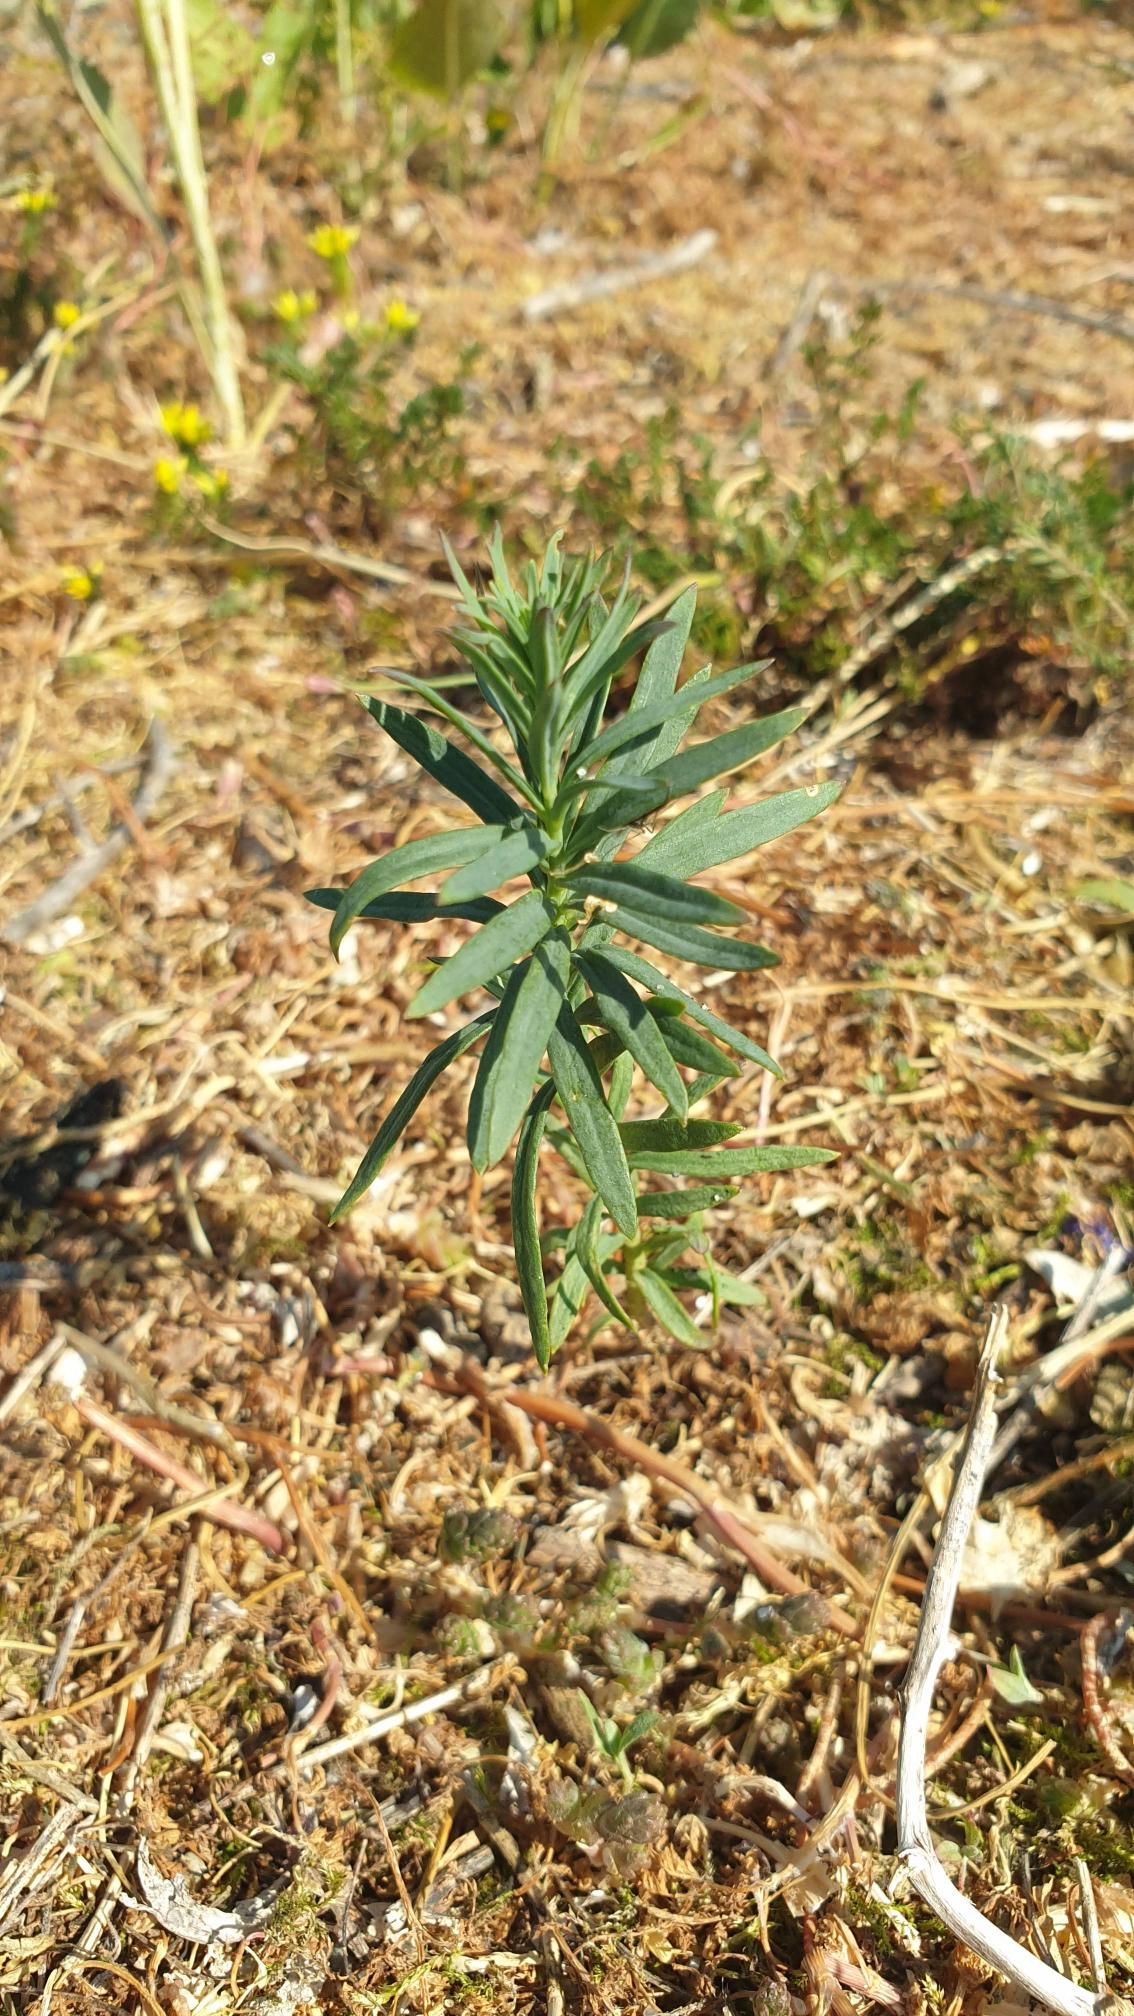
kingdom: Plantae
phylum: Tracheophyta
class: Magnoliopsida
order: Lamiales
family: Plantaginaceae
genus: Linaria
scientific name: Linaria vulgaris
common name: Almindelig torskemund
